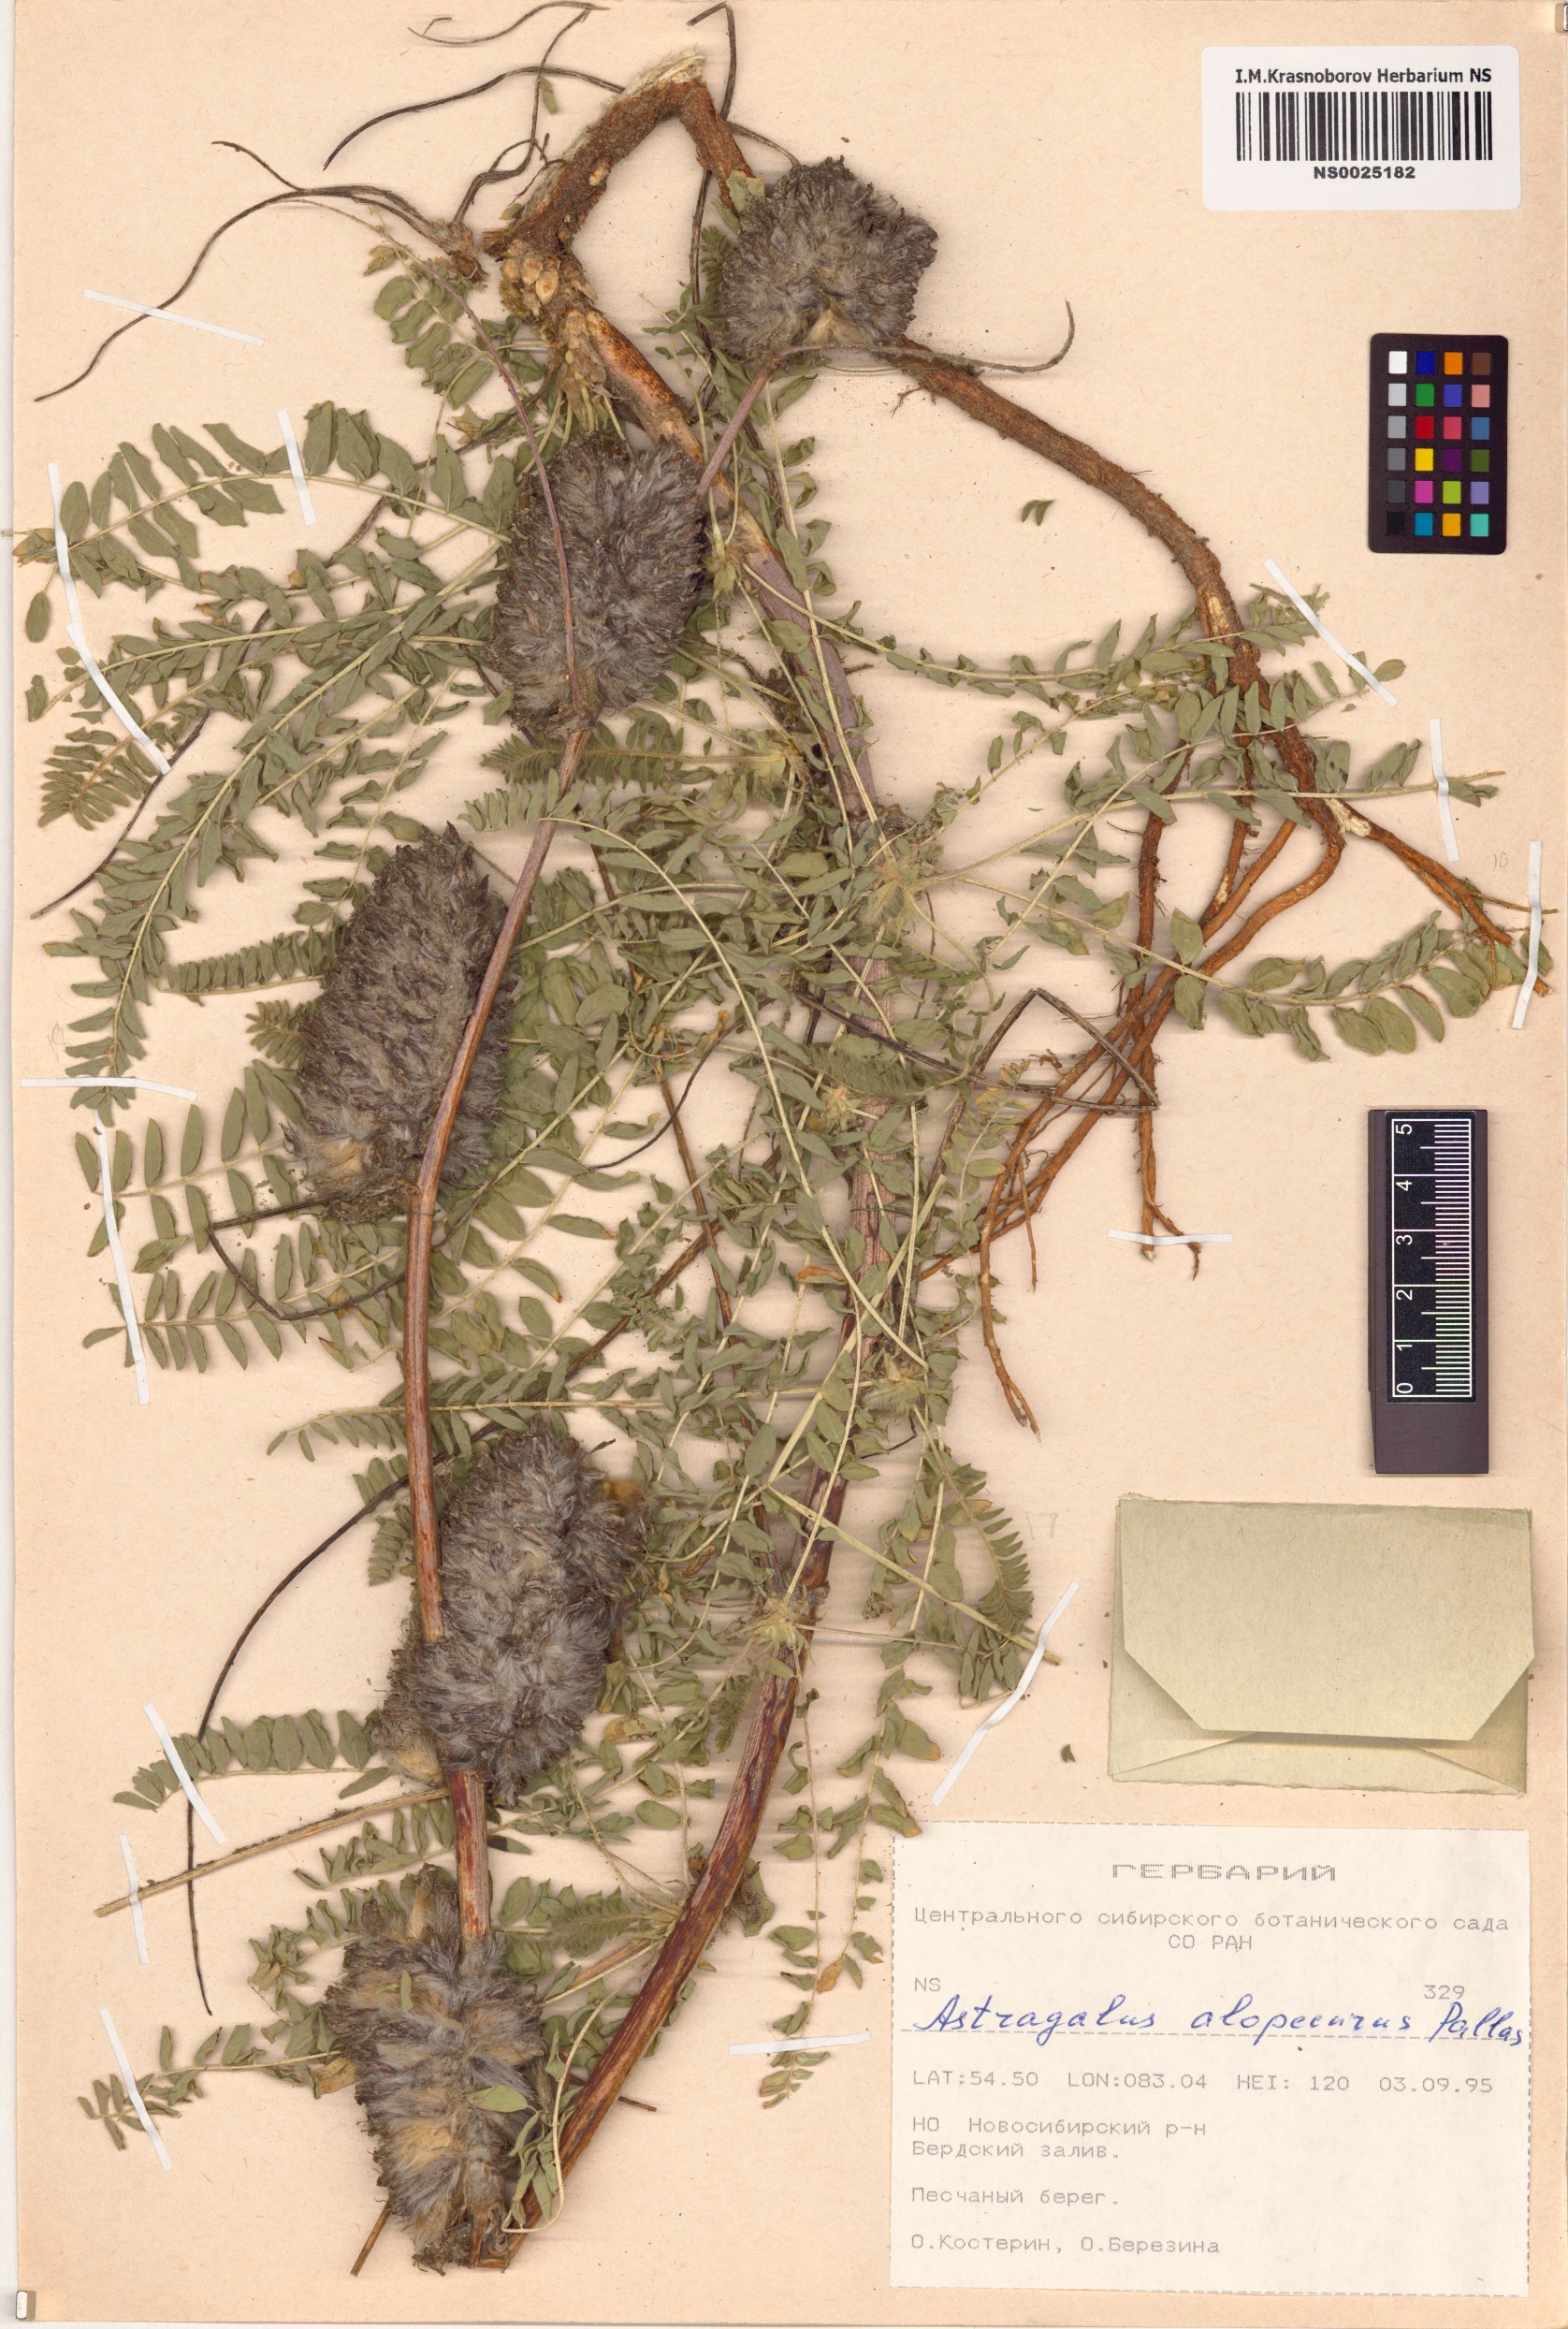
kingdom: Plantae
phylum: Tracheophyta
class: Magnoliopsida
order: Fabales
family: Fabaceae
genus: Astragalus
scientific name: Astragalus alopecurus
